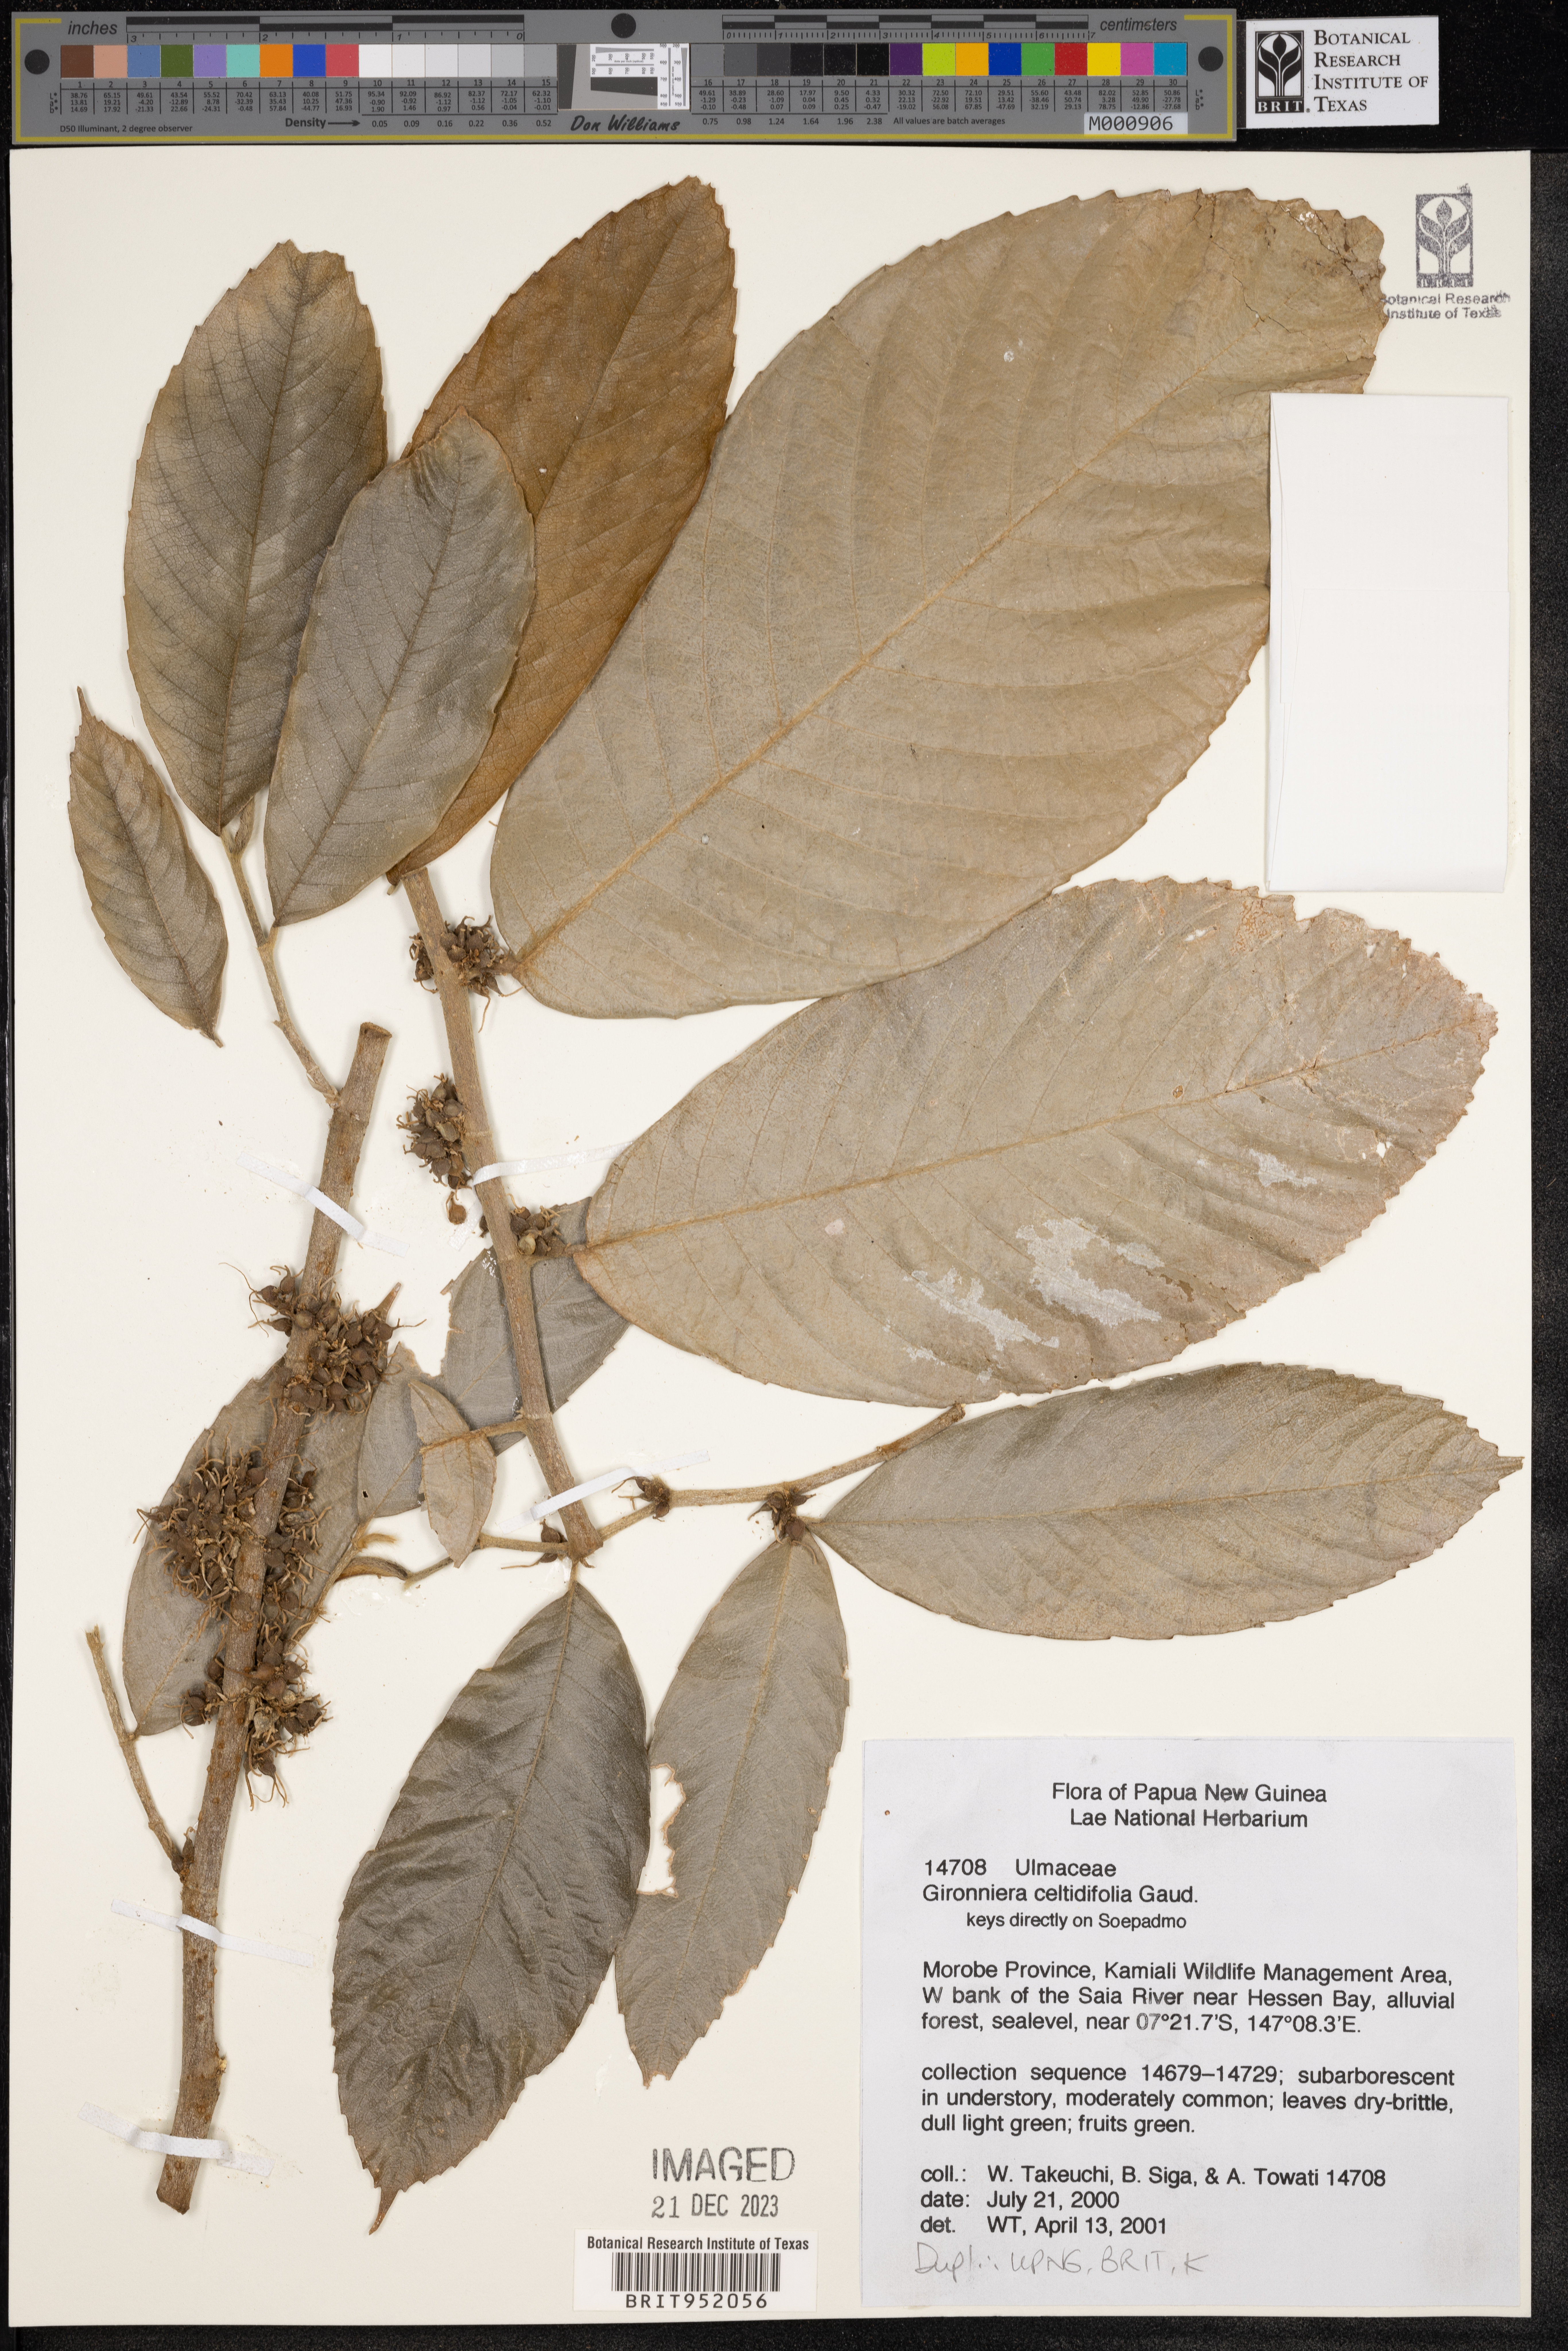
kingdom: Plantae
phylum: Tracheophyta
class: Magnoliopsida
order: Rosales
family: Cannabaceae
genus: Gironniera
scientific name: Gironniera
